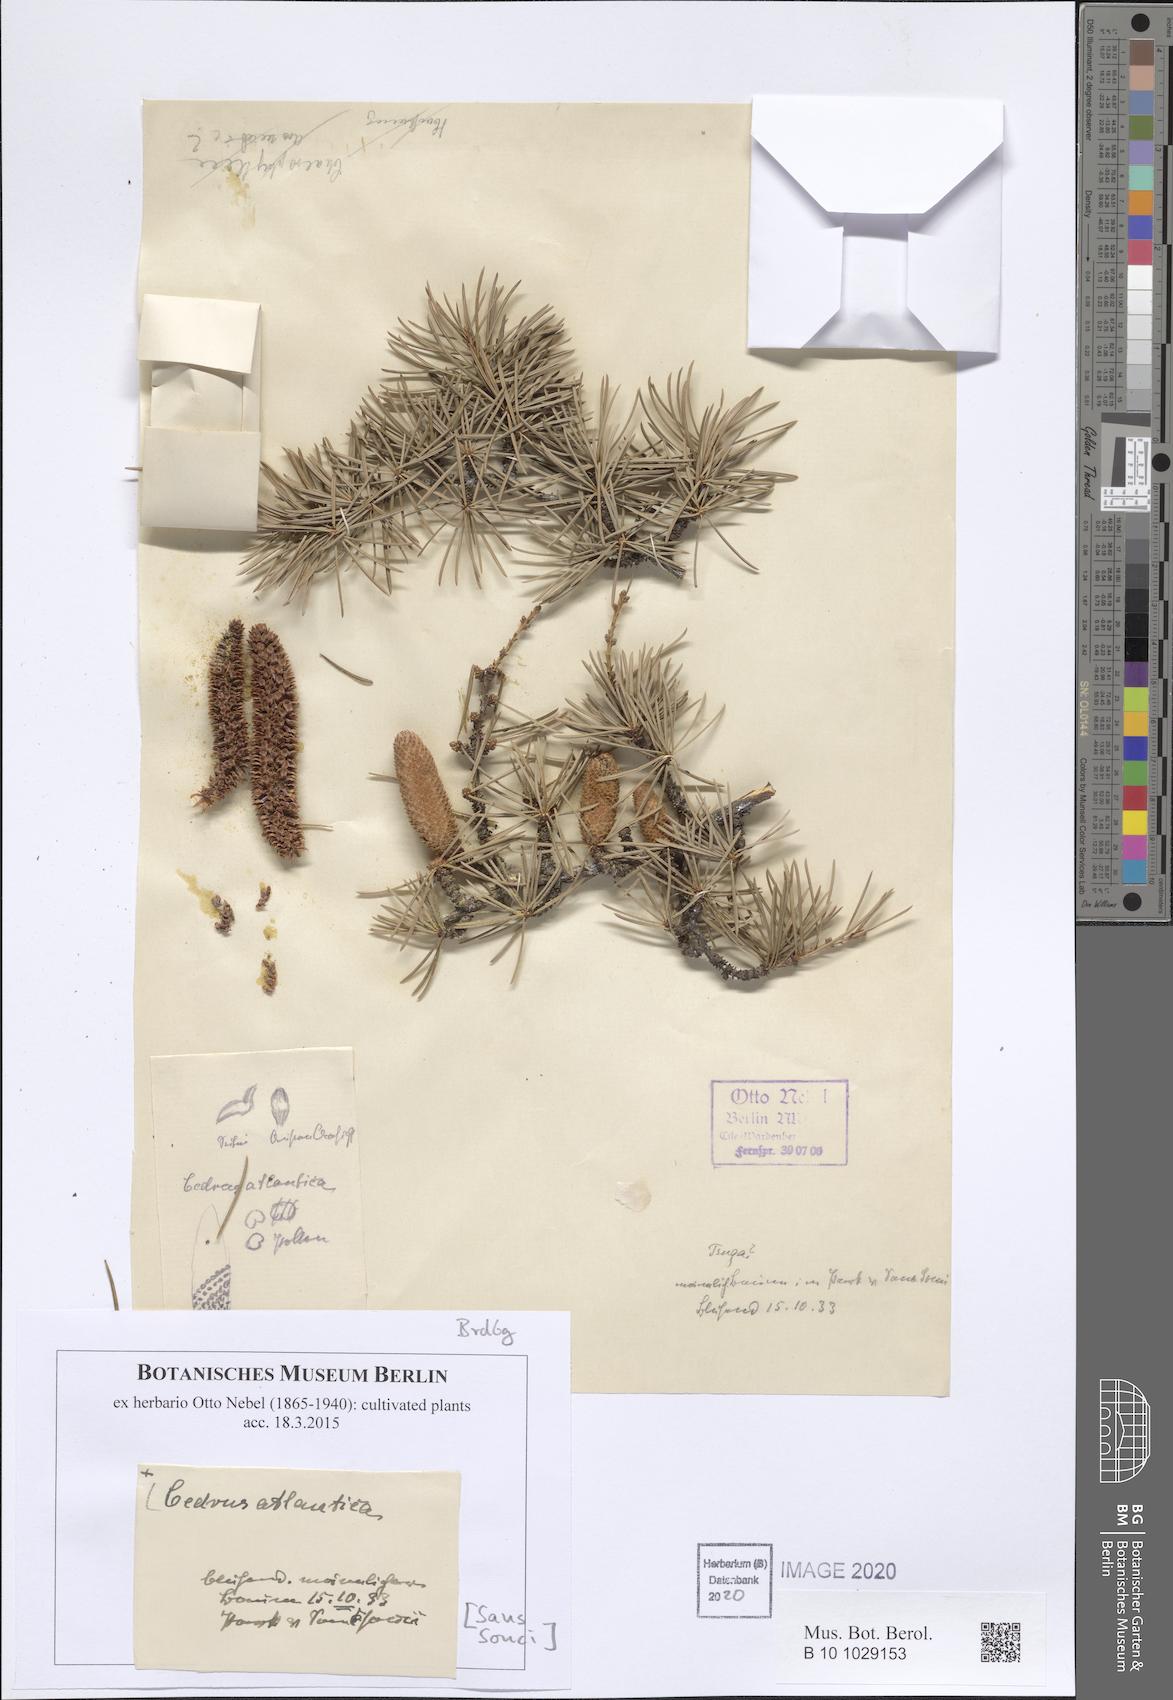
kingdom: Plantae
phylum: Tracheophyta
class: Pinopsida
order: Pinales
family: Pinaceae
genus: Cedrus
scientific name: Cedrus atlantica
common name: Atlas cedar
